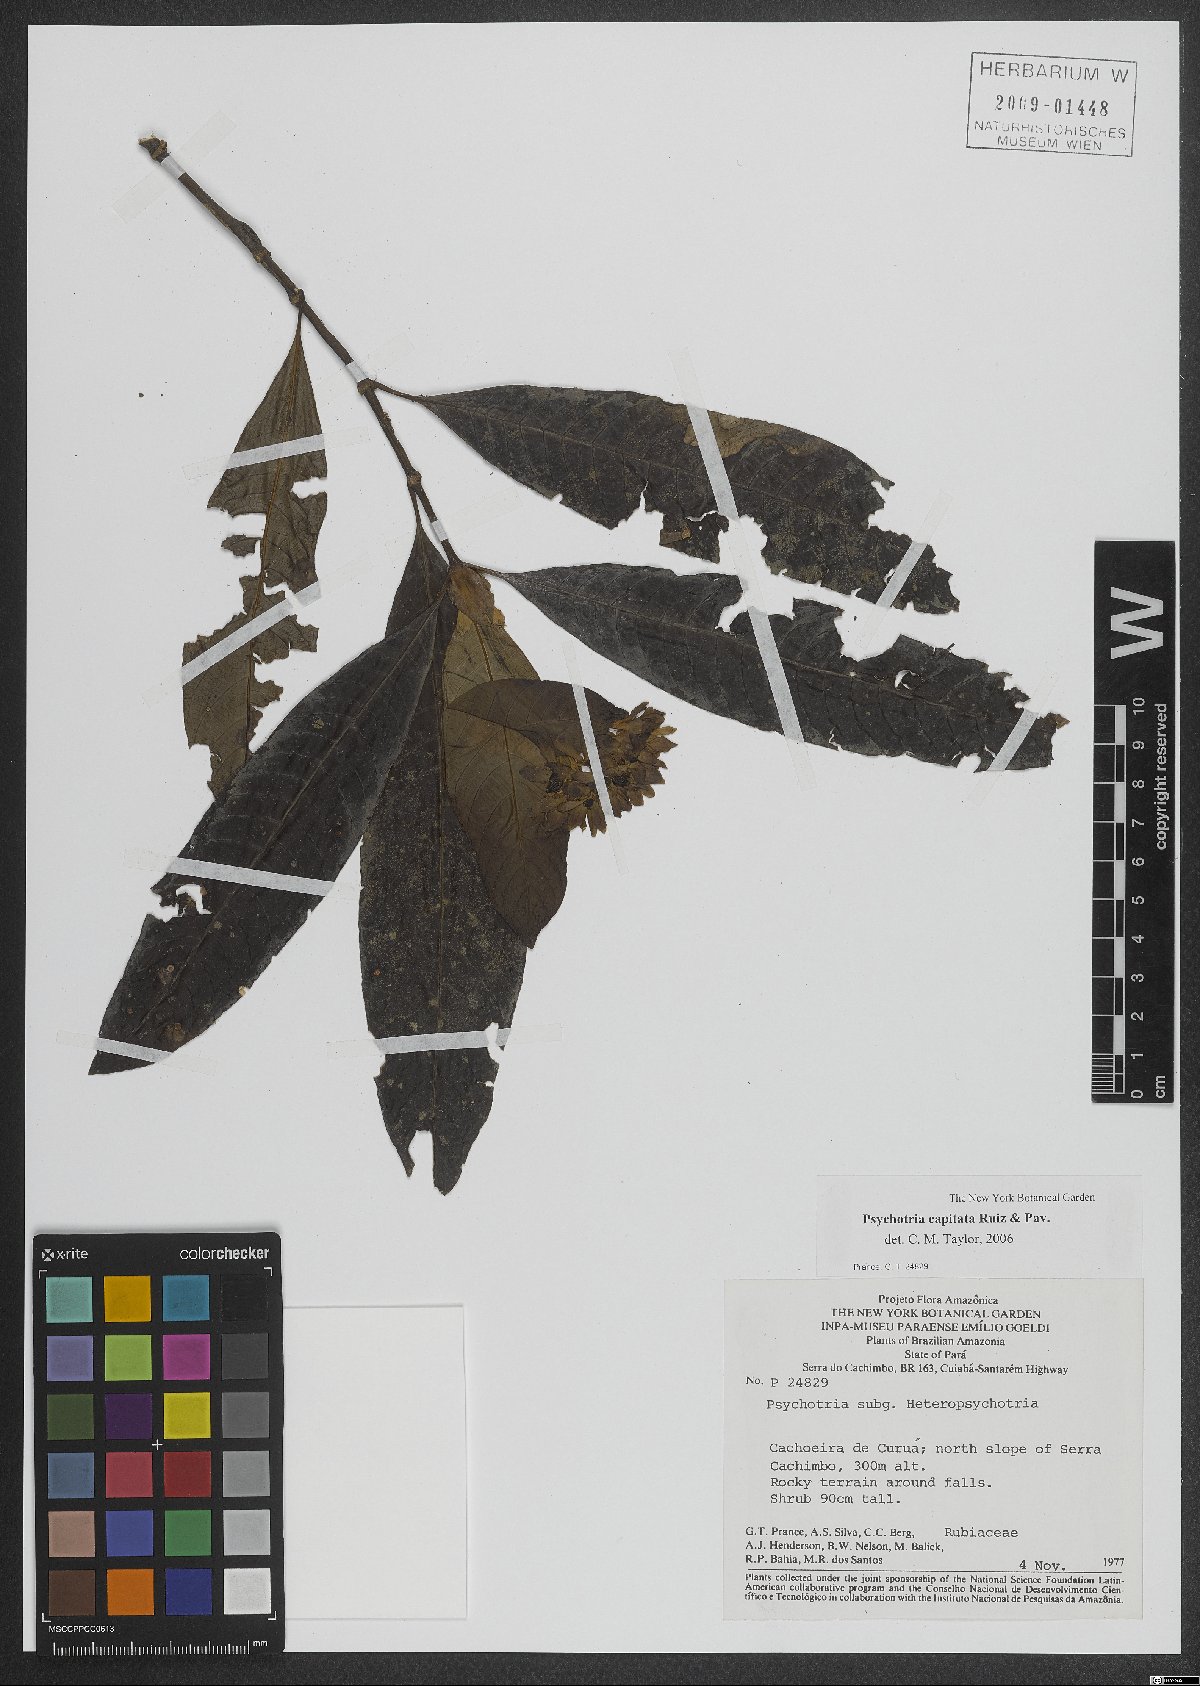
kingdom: Plantae
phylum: Tracheophyta
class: Magnoliopsida
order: Gentianales
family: Rubiaceae
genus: Palicourea
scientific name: Palicourea violacea
